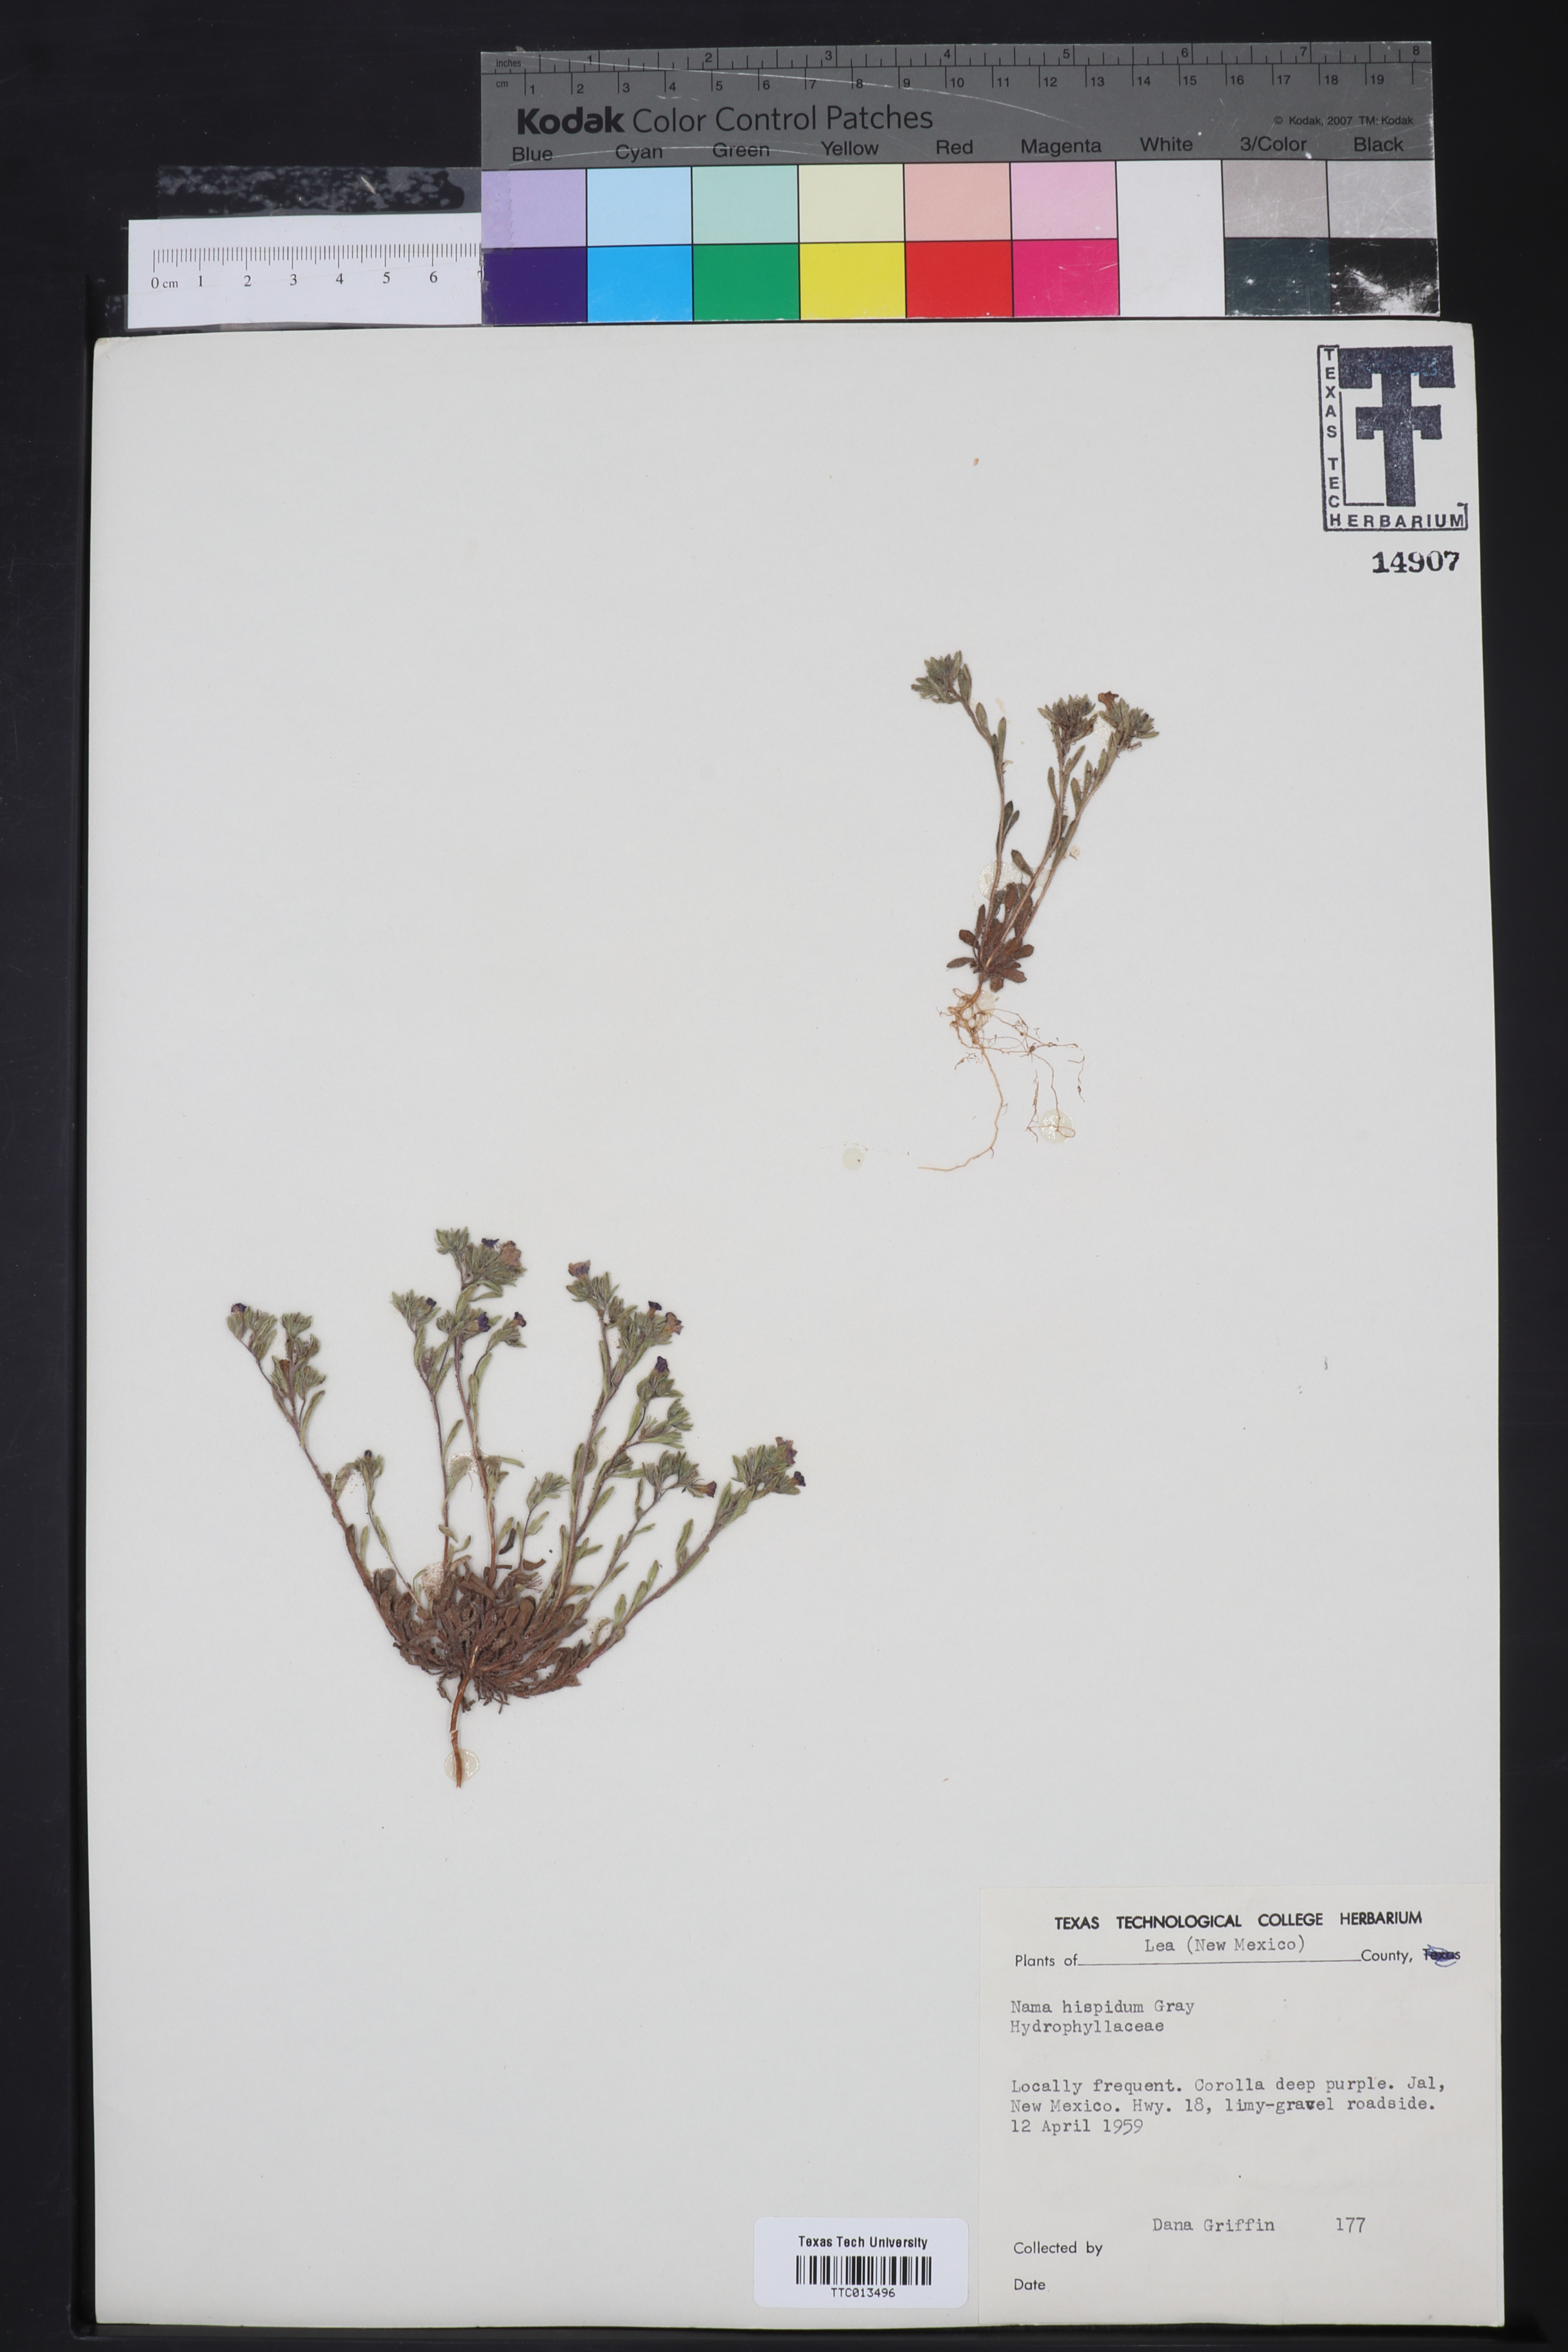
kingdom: Plantae
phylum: Tracheophyta
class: Magnoliopsida
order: Boraginales
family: Namaceae
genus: Nama
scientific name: Nama hispida
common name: Bristly nama
